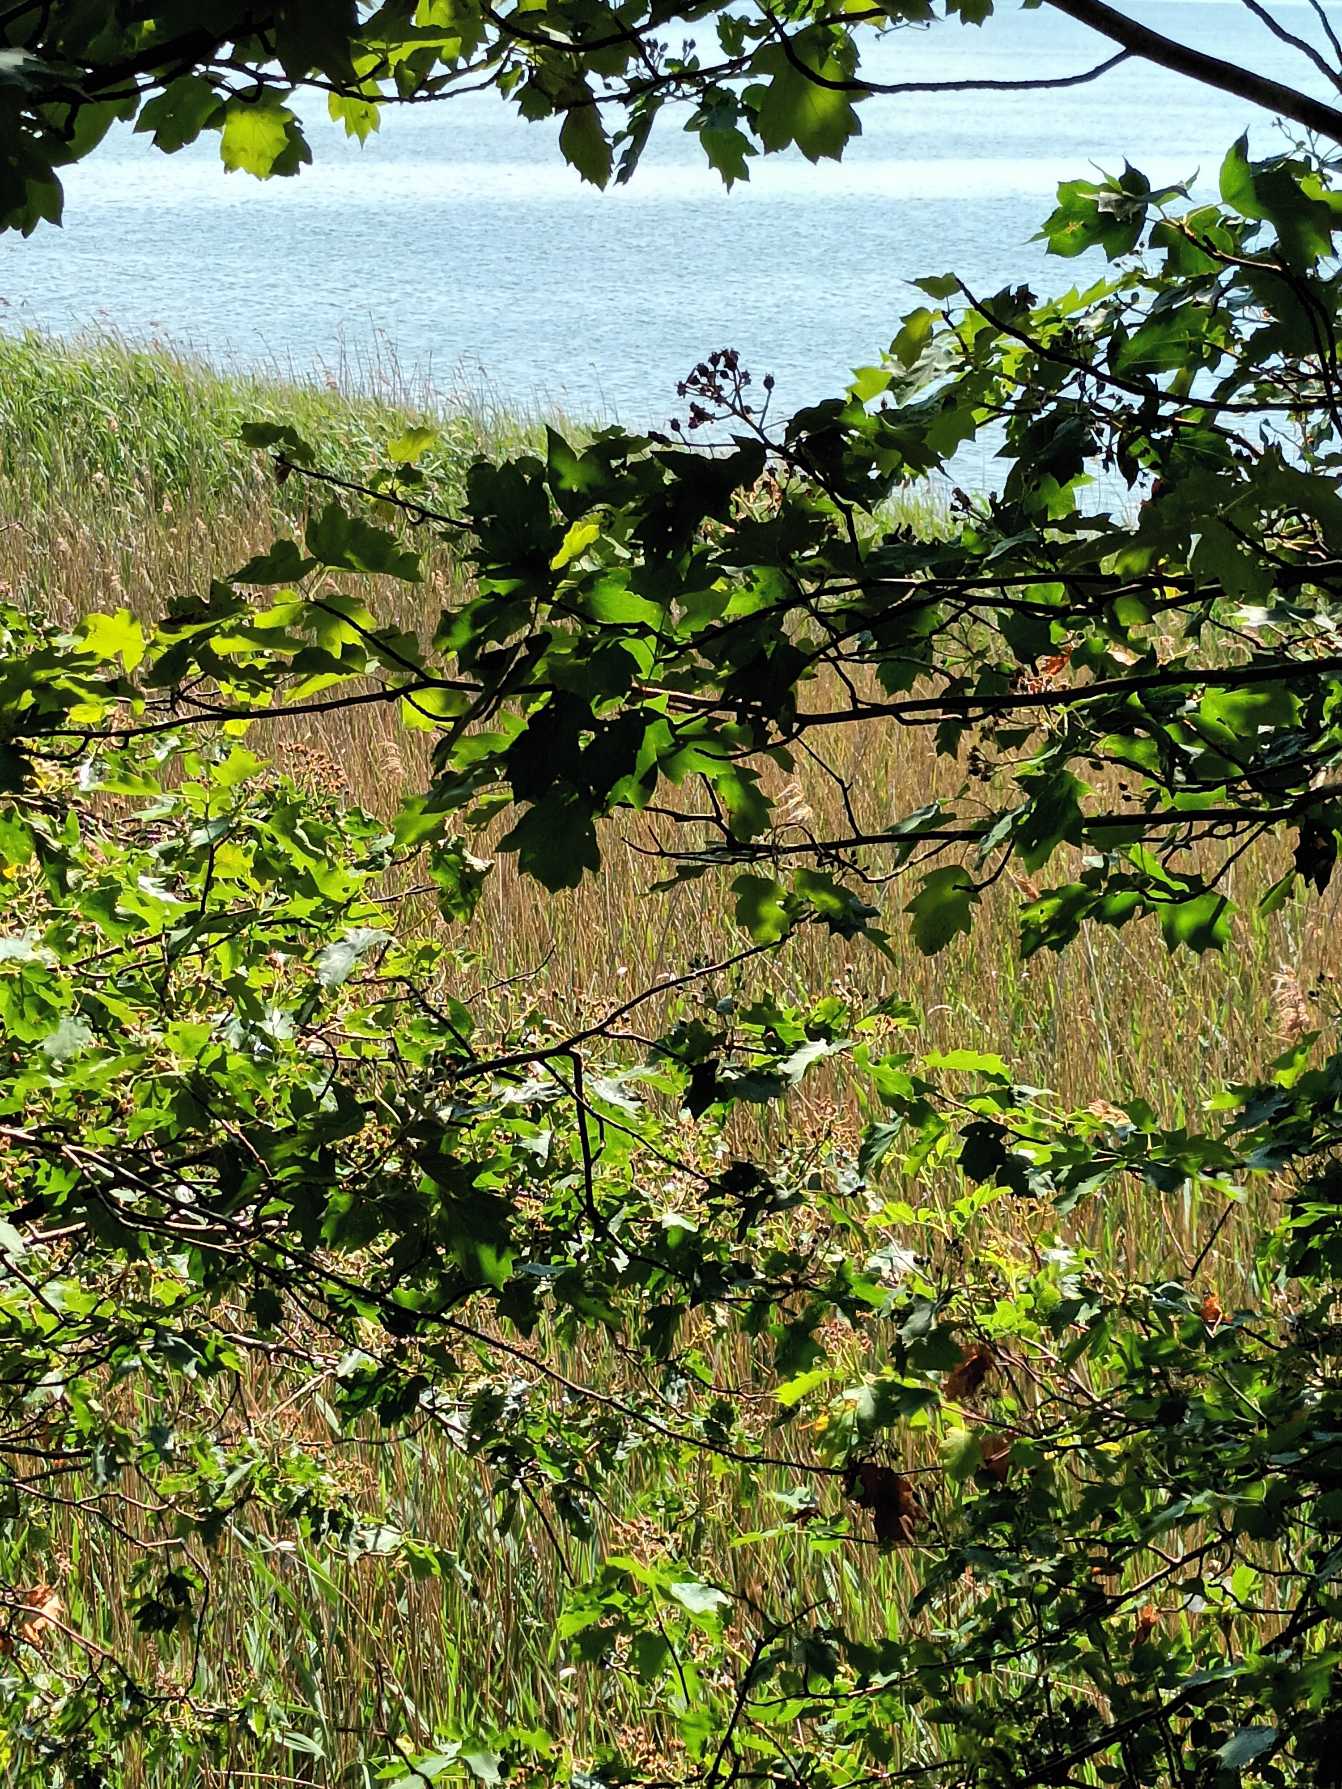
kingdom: Plantae
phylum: Tracheophyta
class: Magnoliopsida
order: Rosales
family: Rosaceae
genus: Torminalis
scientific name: Torminalis glaberrima
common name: Tarmvrid-røn
